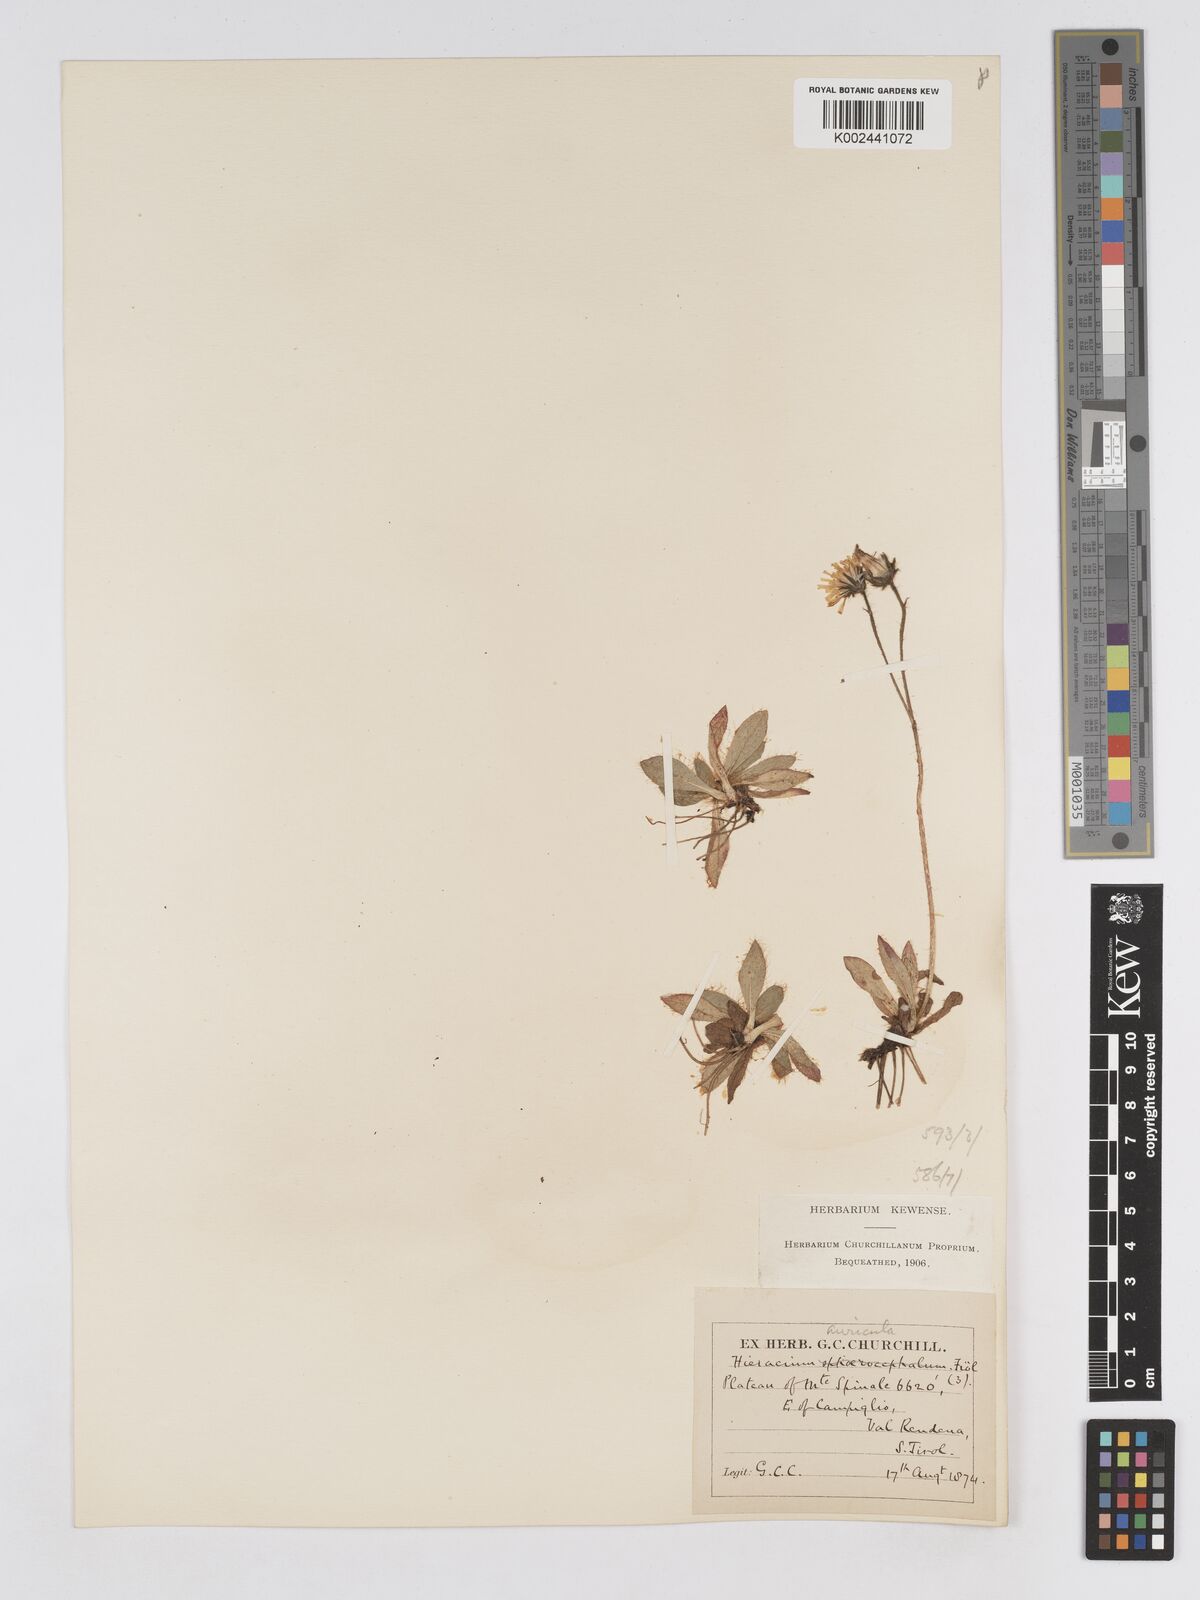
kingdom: Plantae
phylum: Tracheophyta
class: Magnoliopsida
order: Asterales
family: Asteraceae
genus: Pilosella
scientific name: Pilosella sphaerocephala
